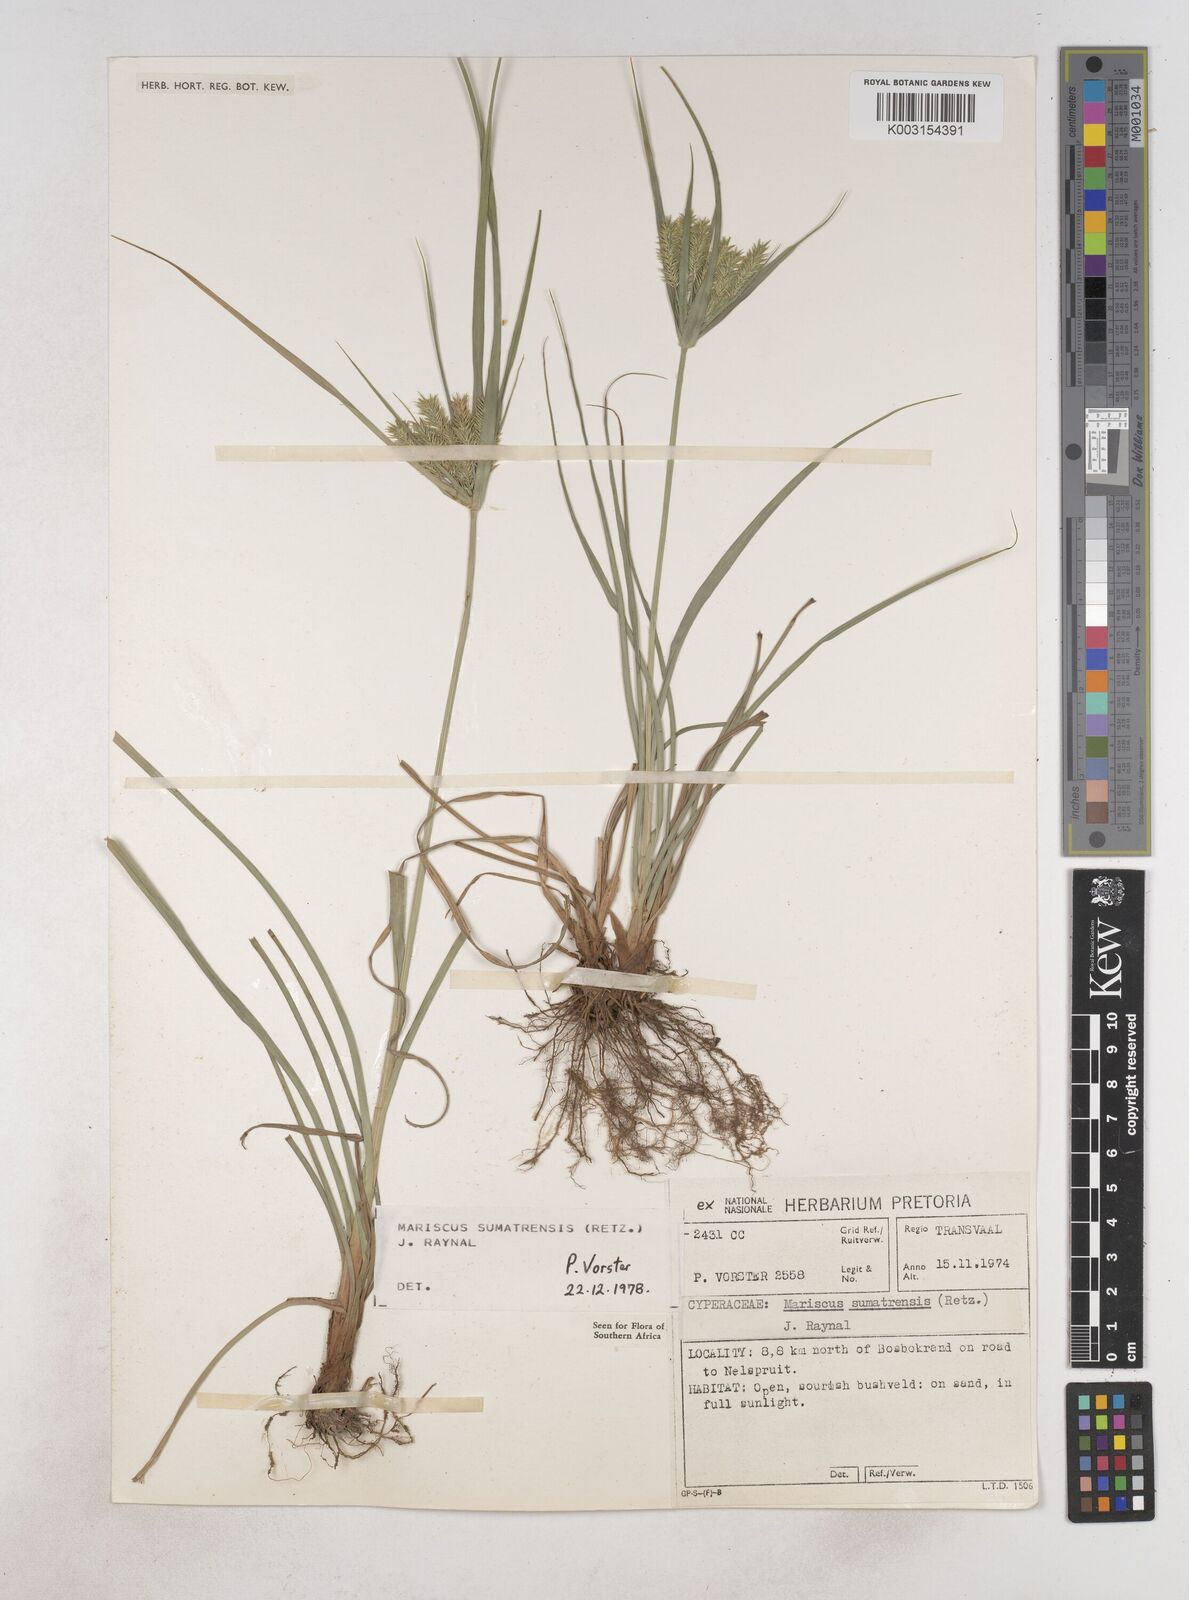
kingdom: Plantae
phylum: Tracheophyta
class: Liliopsida
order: Poales
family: Cyperaceae
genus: Cyperus
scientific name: Cyperus cyperoides
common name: Pacific island flat sedge
